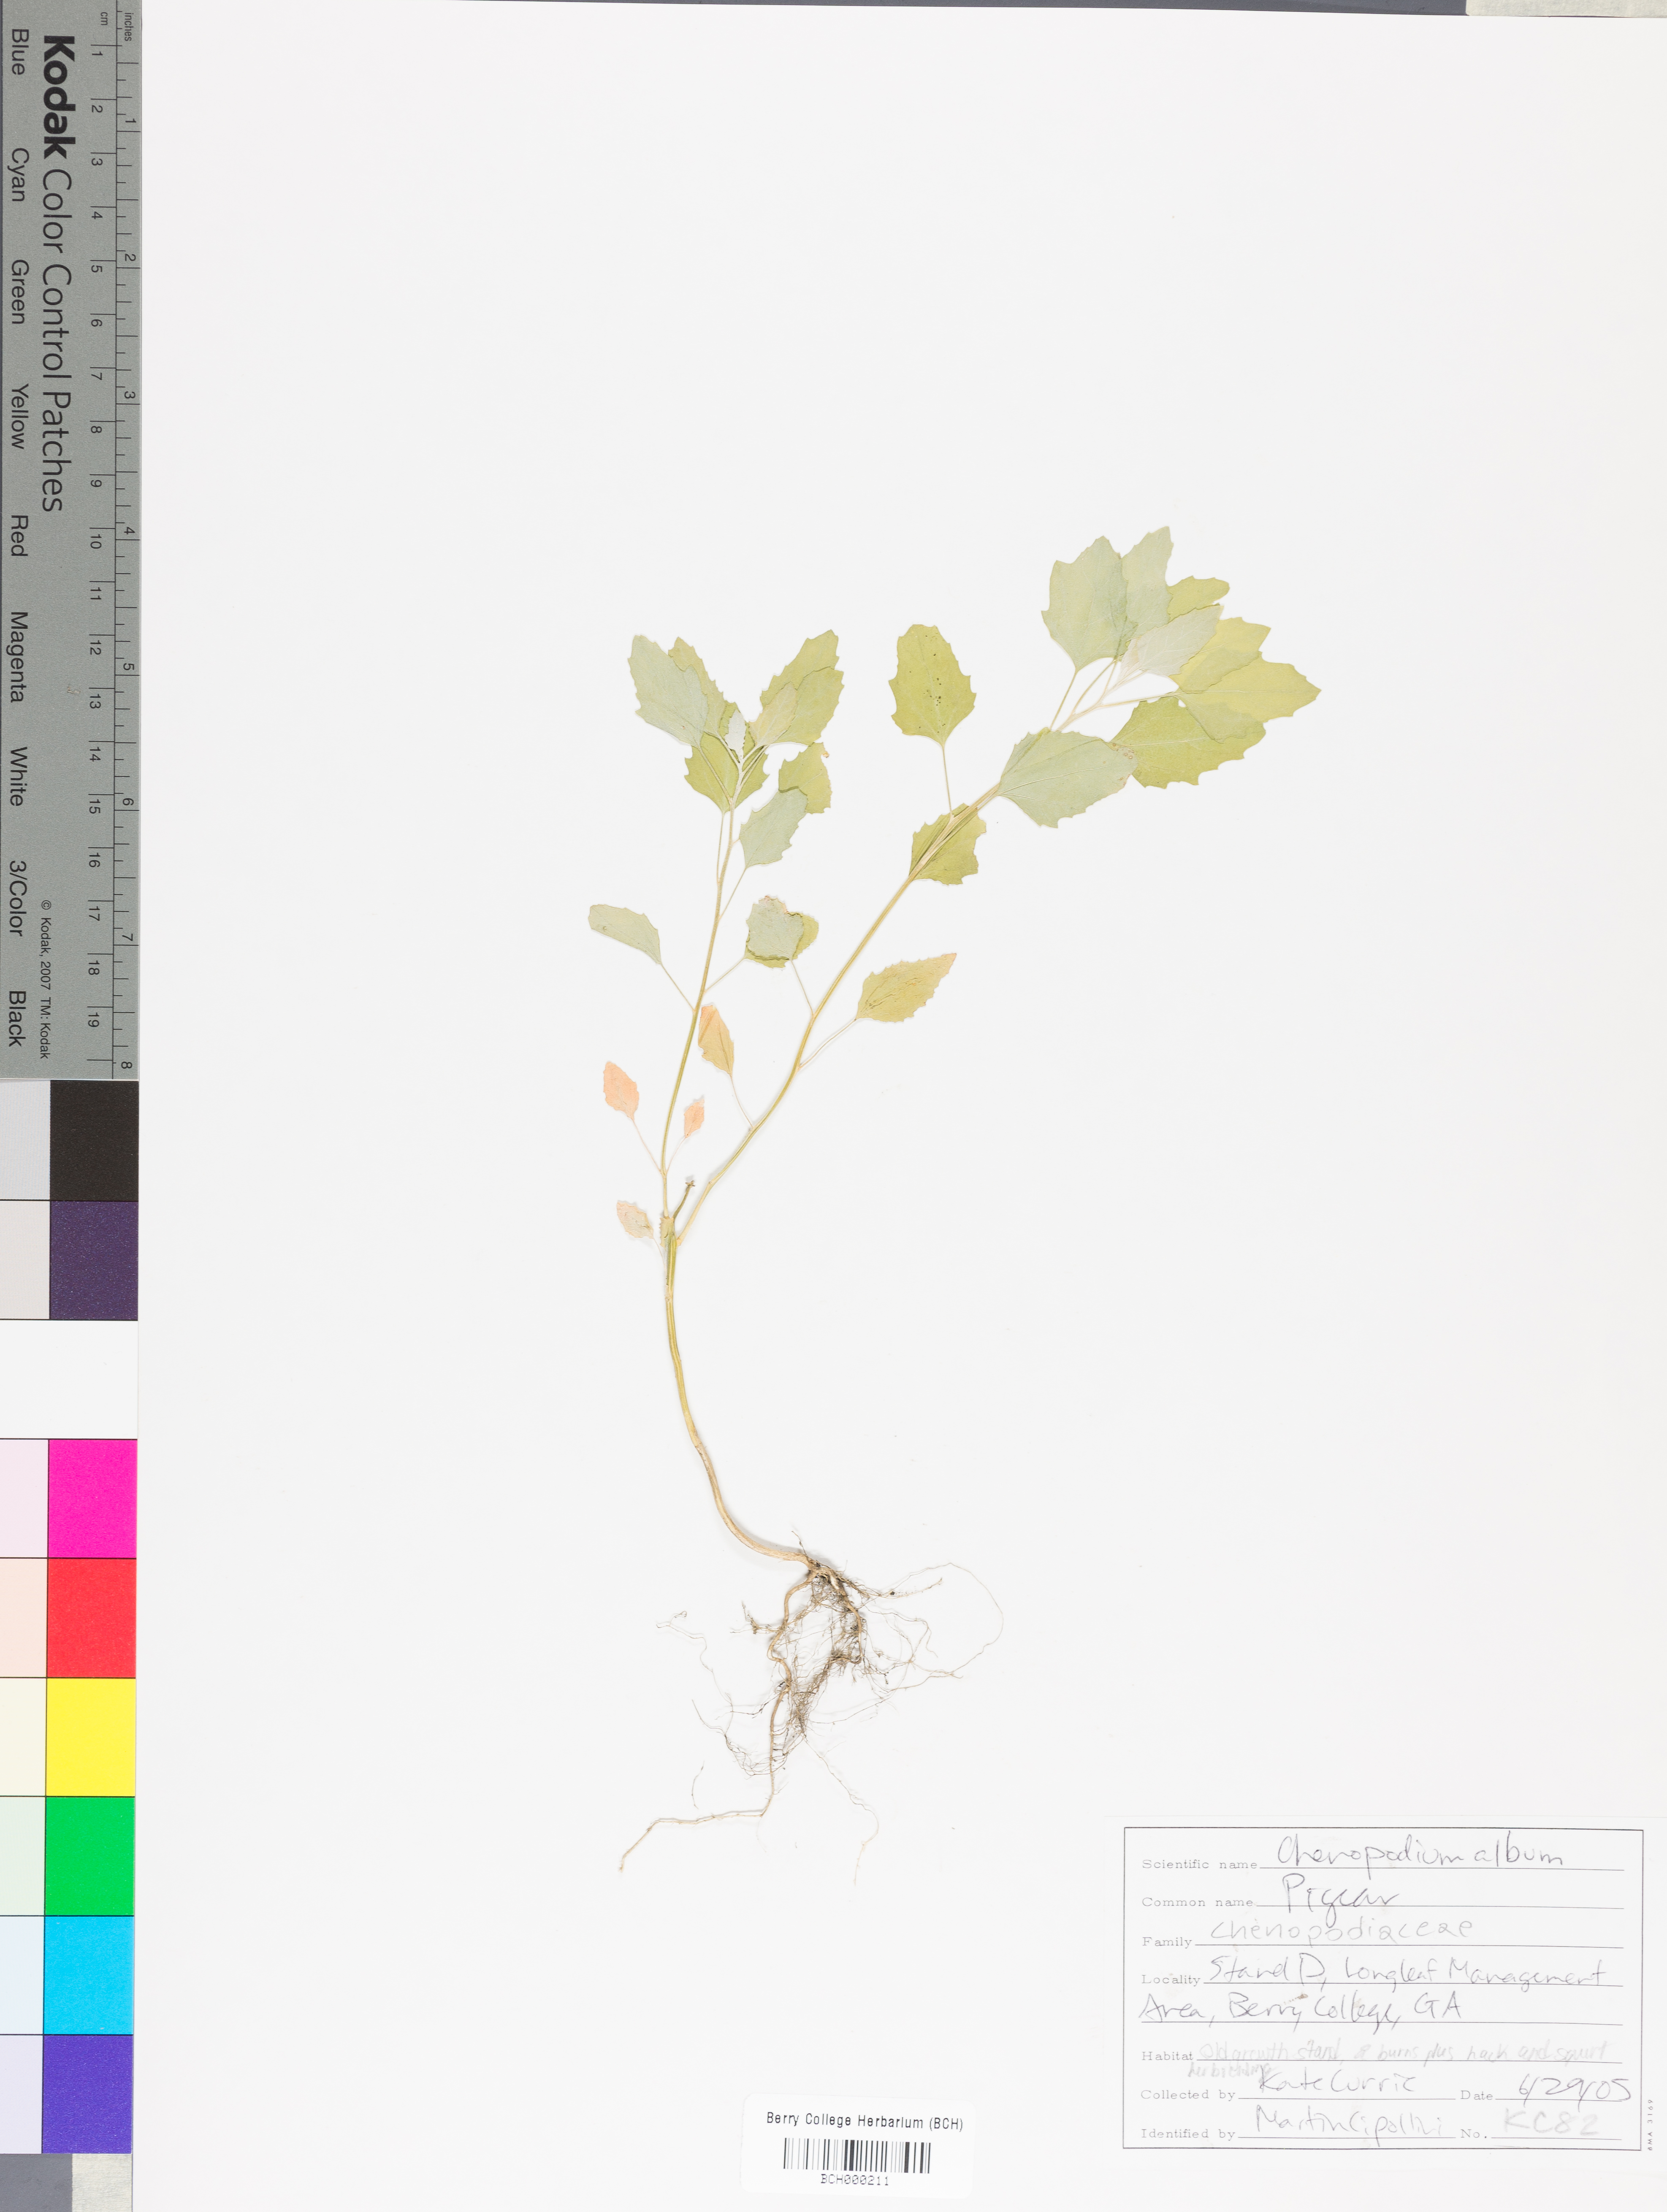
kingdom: Plantae
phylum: Tracheophyta
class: Magnoliopsida
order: Caryophyllales
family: Amaranthaceae
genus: Chenopodium
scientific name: Chenopodium album
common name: Fat-hen
